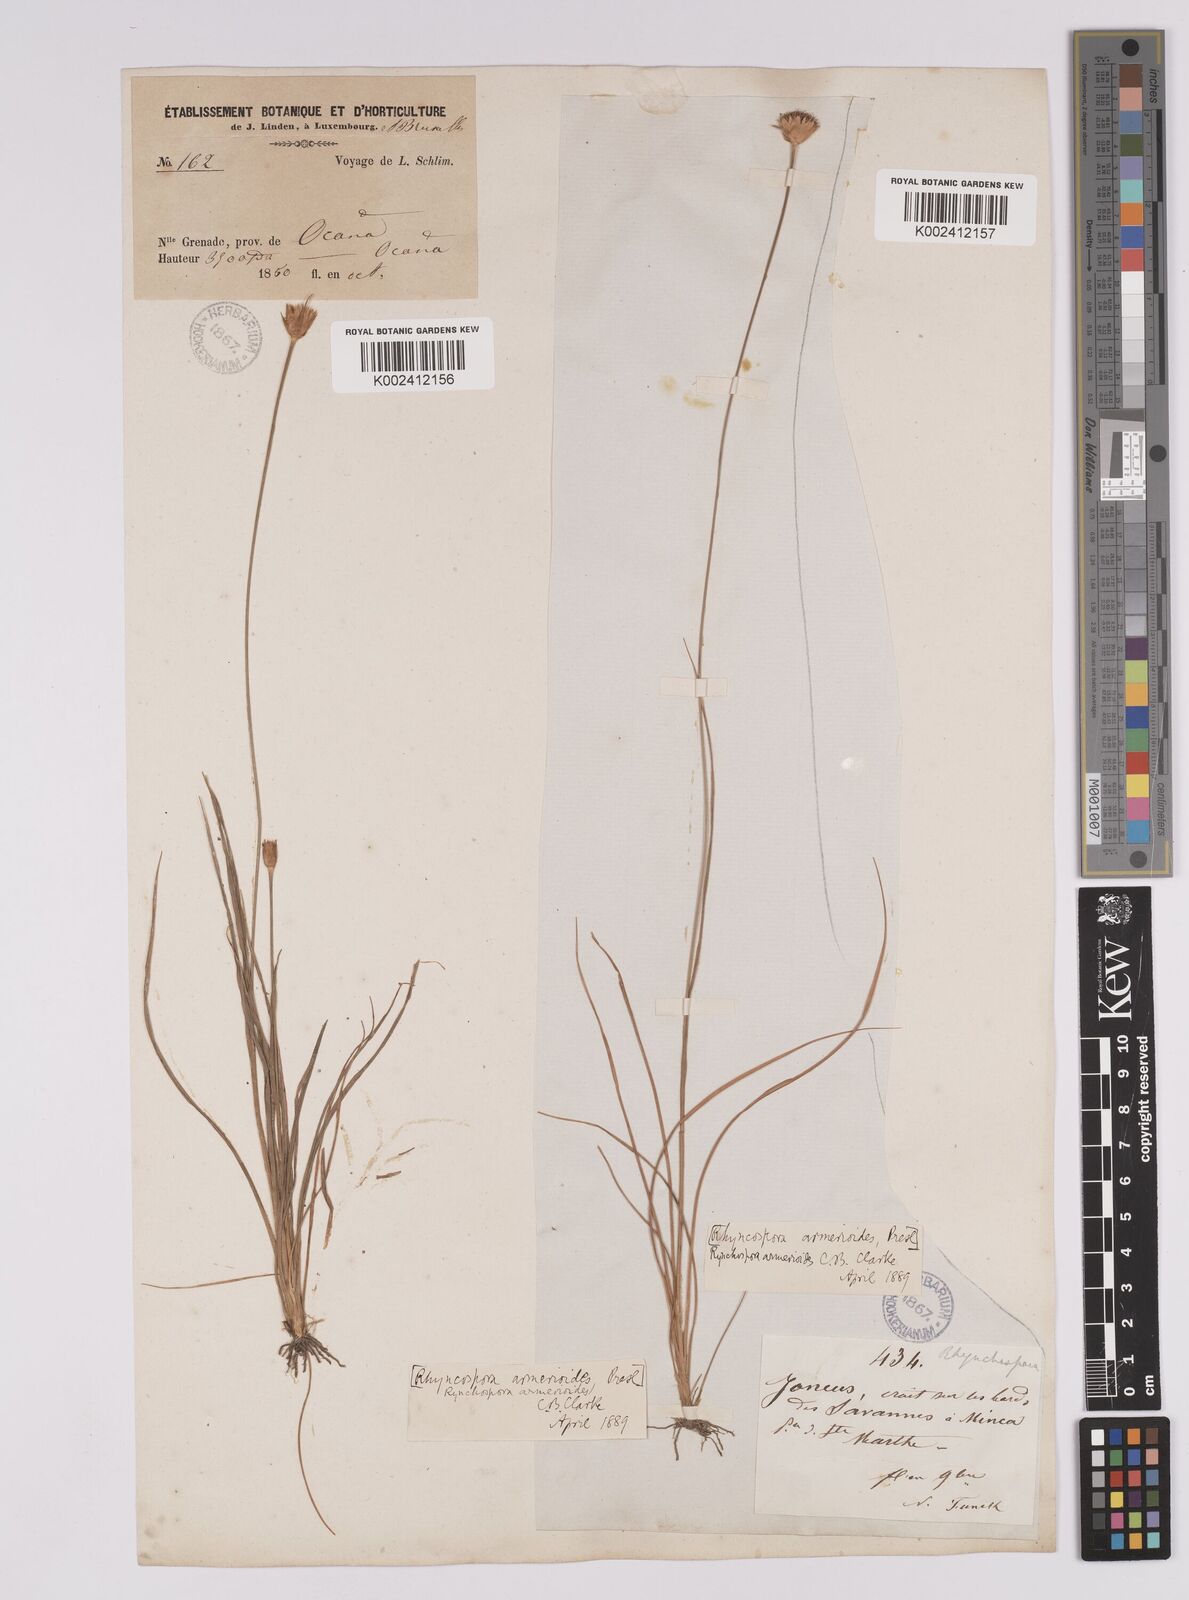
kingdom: Plantae
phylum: Tracheophyta
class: Liliopsida
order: Poales
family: Cyperaceae
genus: Rhynchospora
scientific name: Rhynchospora armerioides
